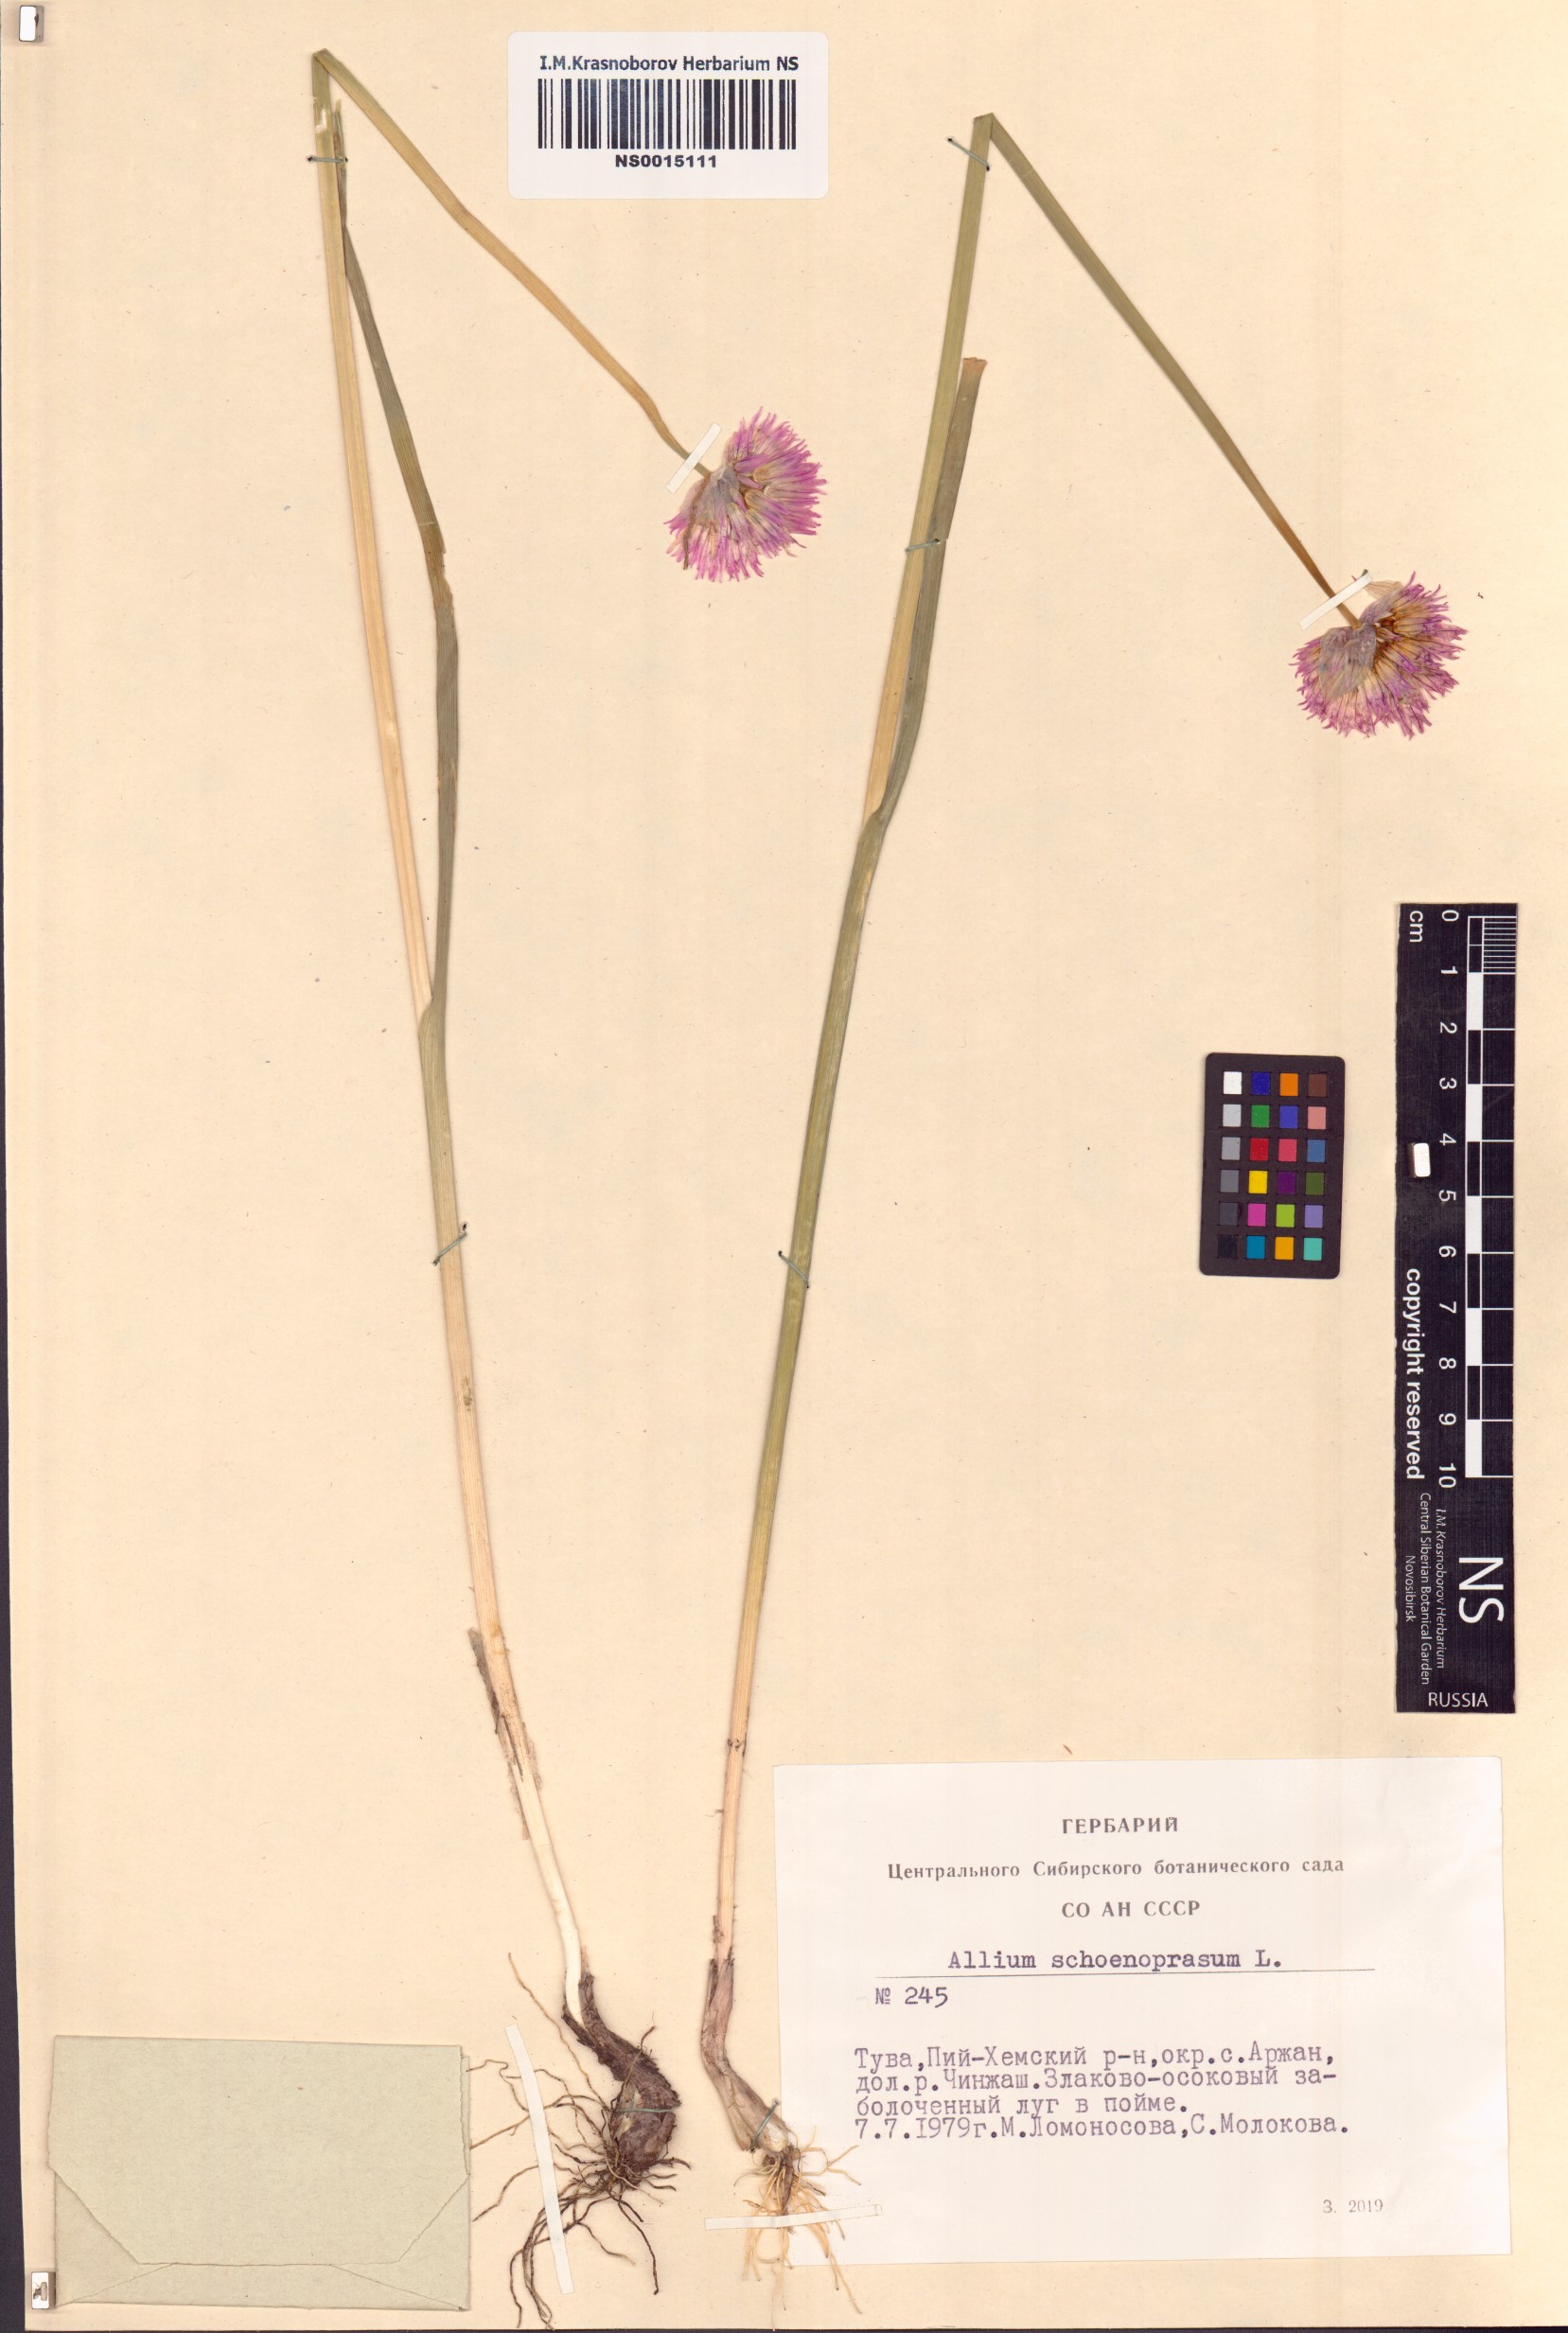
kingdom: Plantae
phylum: Tracheophyta
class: Liliopsida
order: Asparagales
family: Amaryllidaceae
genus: Allium
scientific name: Allium schoenoprasum
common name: Chives
